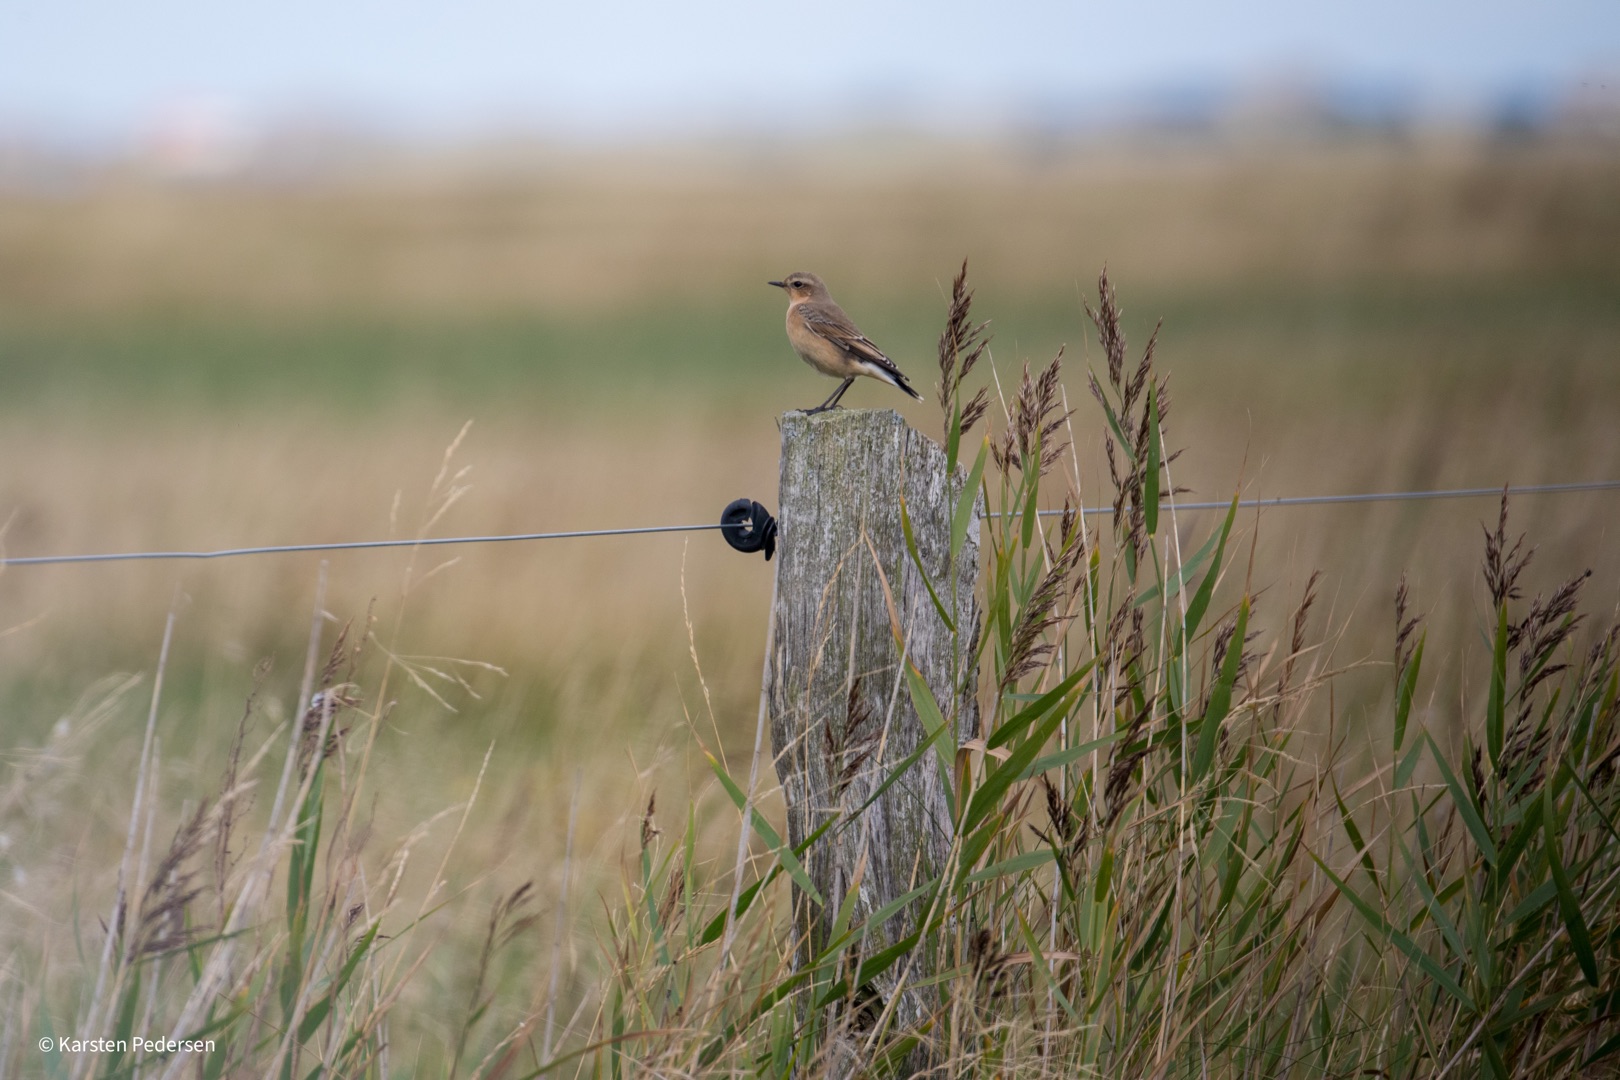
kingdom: Animalia
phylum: Chordata
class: Aves
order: Passeriformes
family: Muscicapidae
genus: Oenanthe
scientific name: Oenanthe oenanthe
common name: Stenpikker
